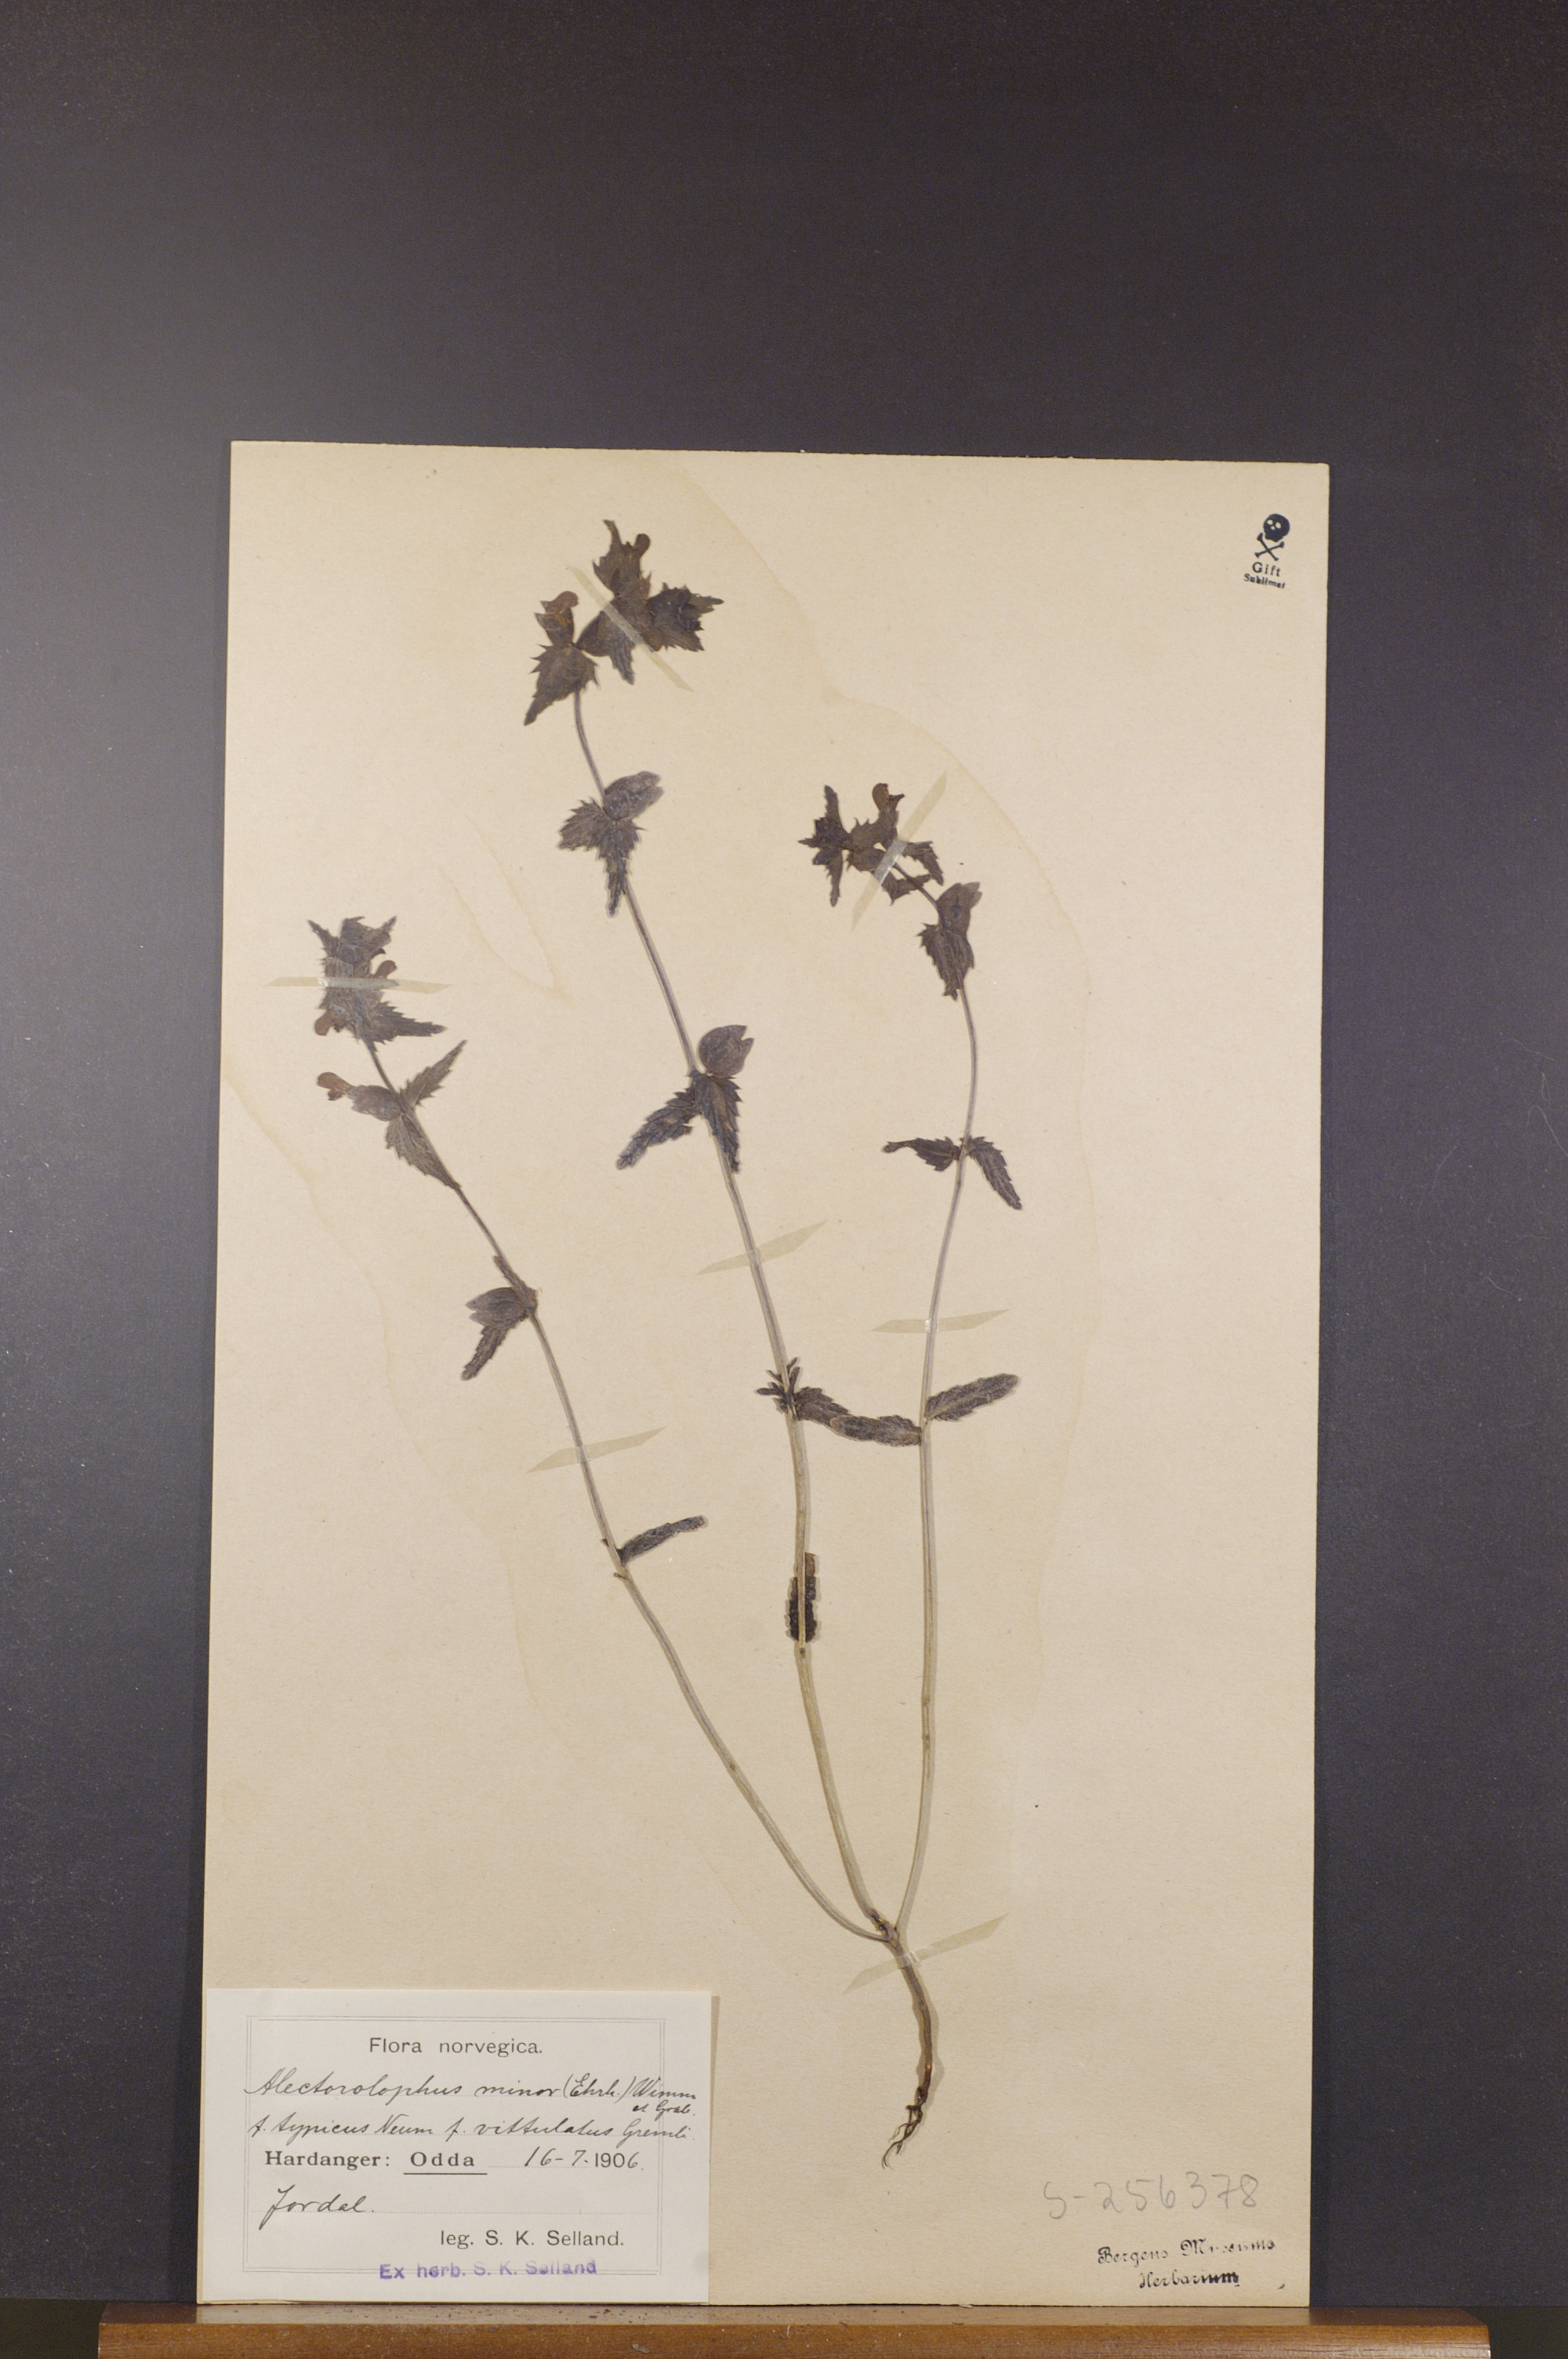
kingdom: Plantae
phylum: Tracheophyta
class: Magnoliopsida
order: Lamiales
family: Orobanchaceae
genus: Rhinanthus
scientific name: Rhinanthus minor
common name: Yellow-rattle
